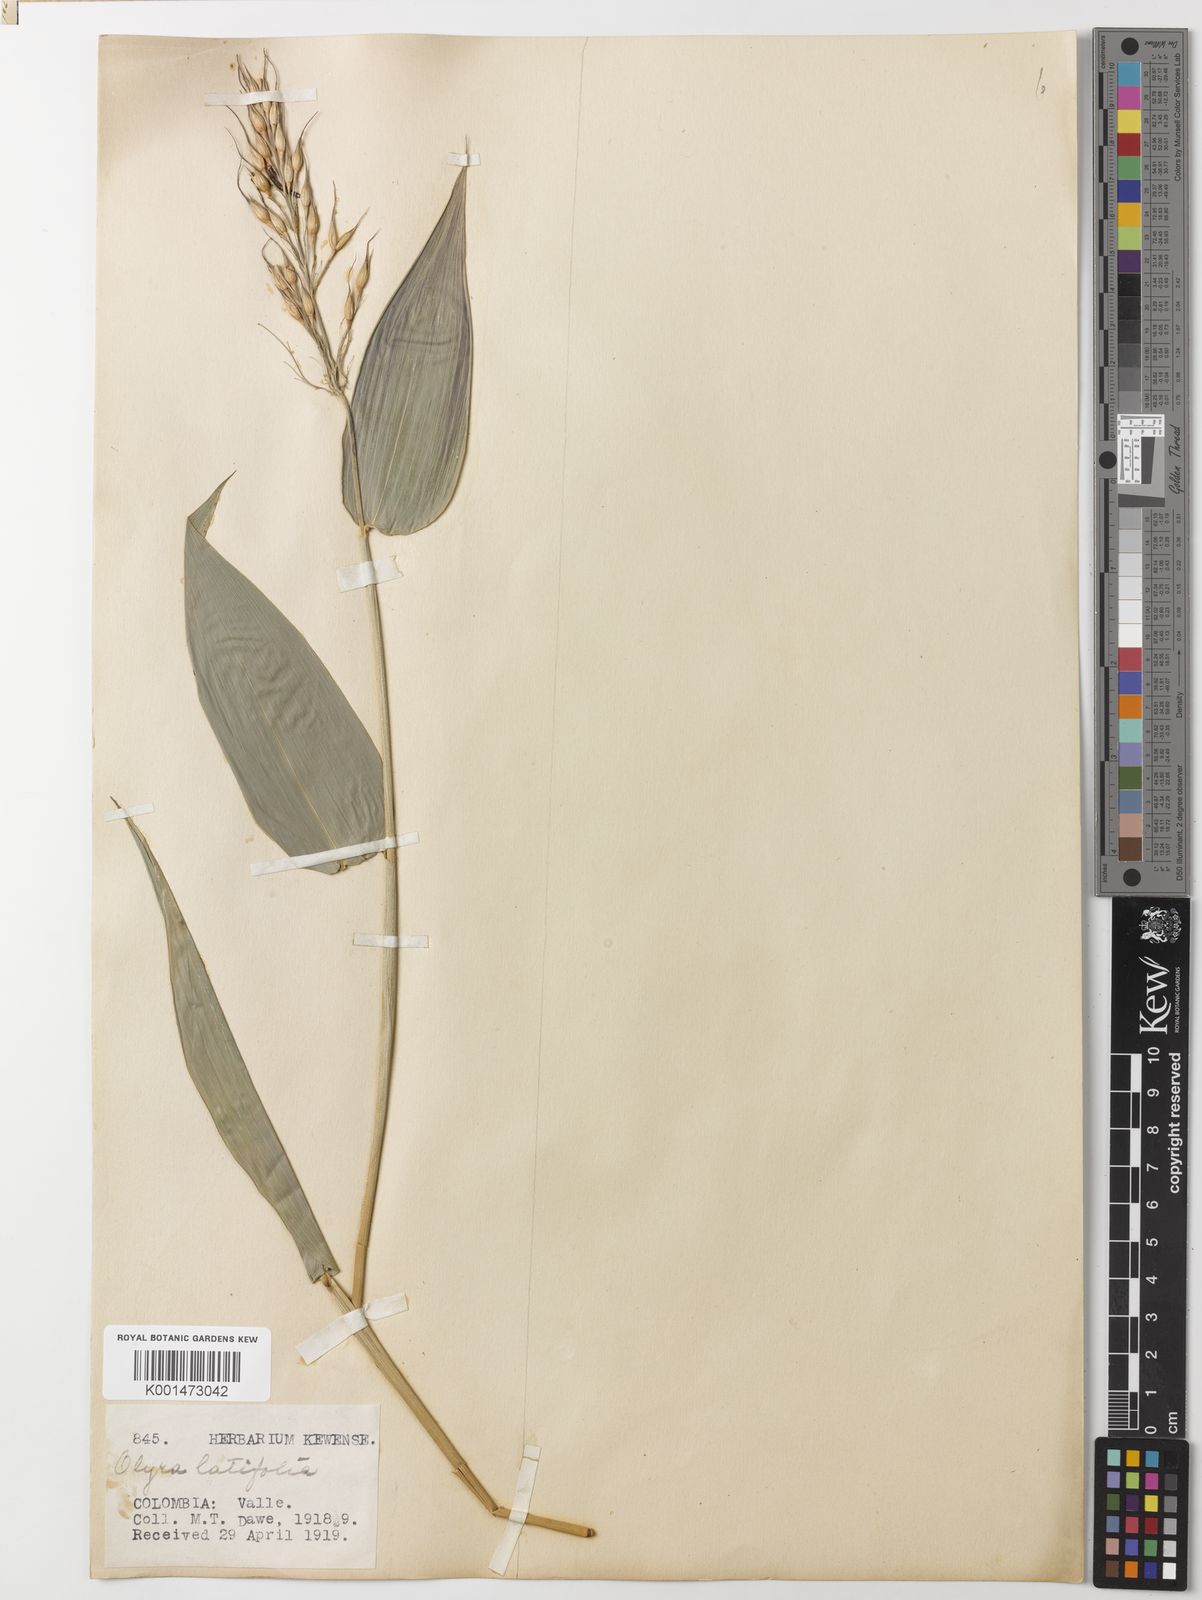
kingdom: Plantae
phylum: Tracheophyta
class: Liliopsida
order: Poales
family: Poaceae
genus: Olyra
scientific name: Olyra latifolia
